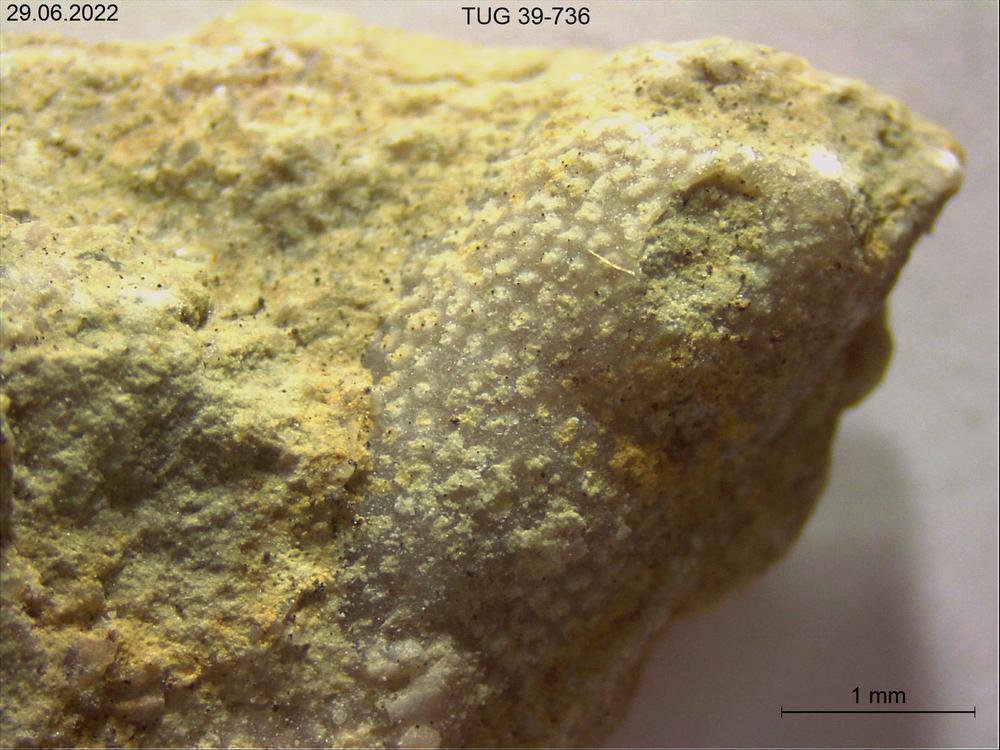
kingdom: Animalia
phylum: Bryozoa
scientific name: Bryozoa
